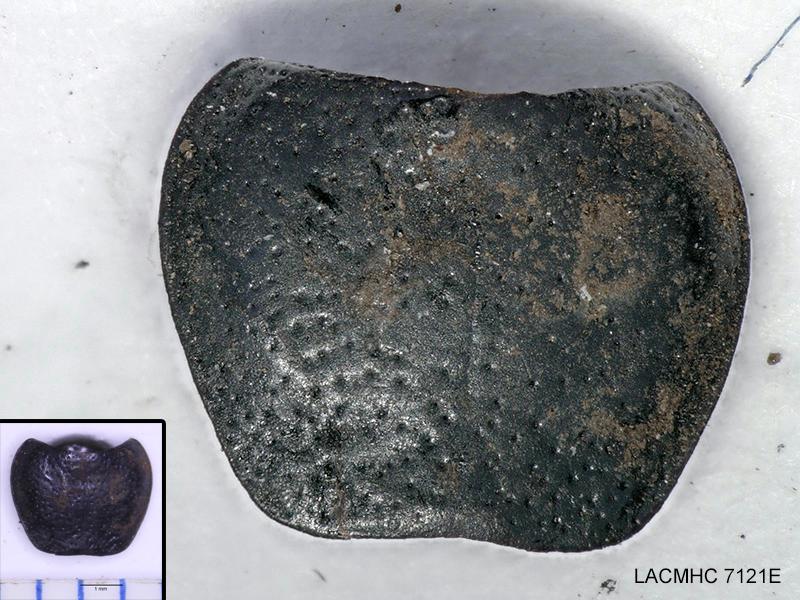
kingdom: Animalia
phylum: Arthropoda
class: Insecta
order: Coleoptera
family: Carabidae
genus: Dicheirus
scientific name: Dicheirus dilatatus
